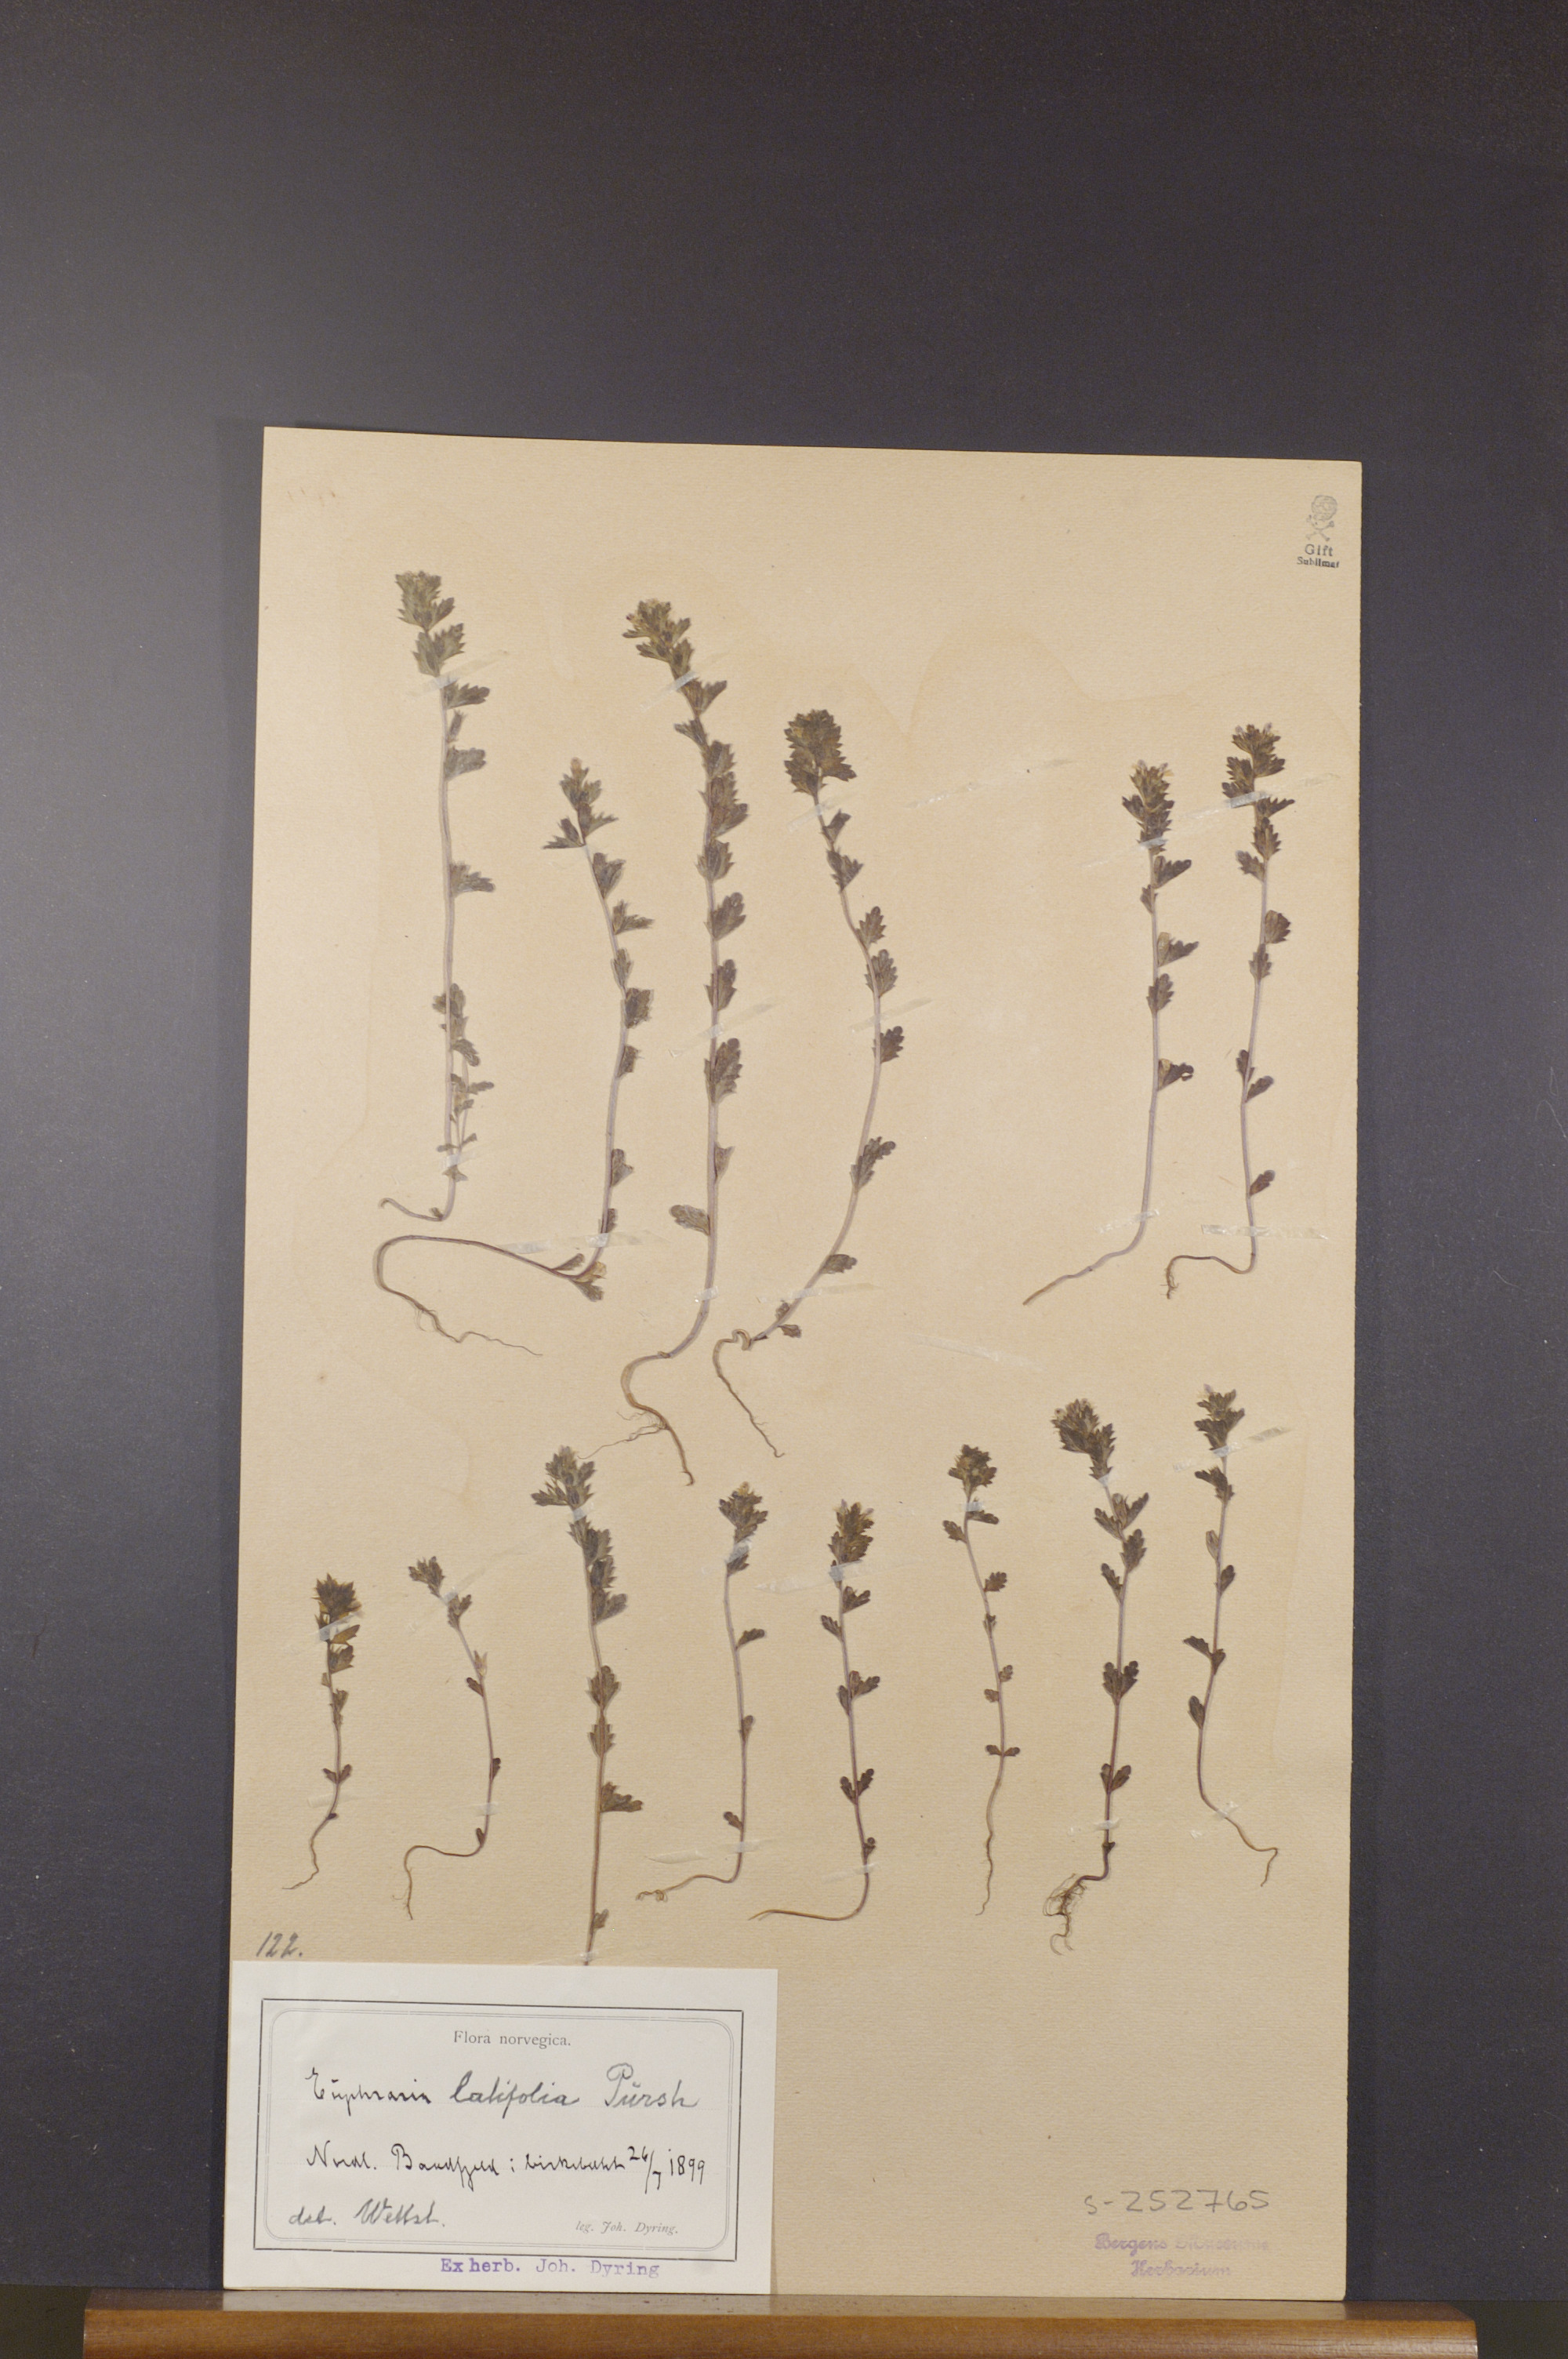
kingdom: Plantae
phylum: Tracheophyta
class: Magnoliopsida
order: Lamiales
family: Orobanchaceae
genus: Euphrasia
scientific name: Euphrasia wettsteinii
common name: Wettstein's eyebright
